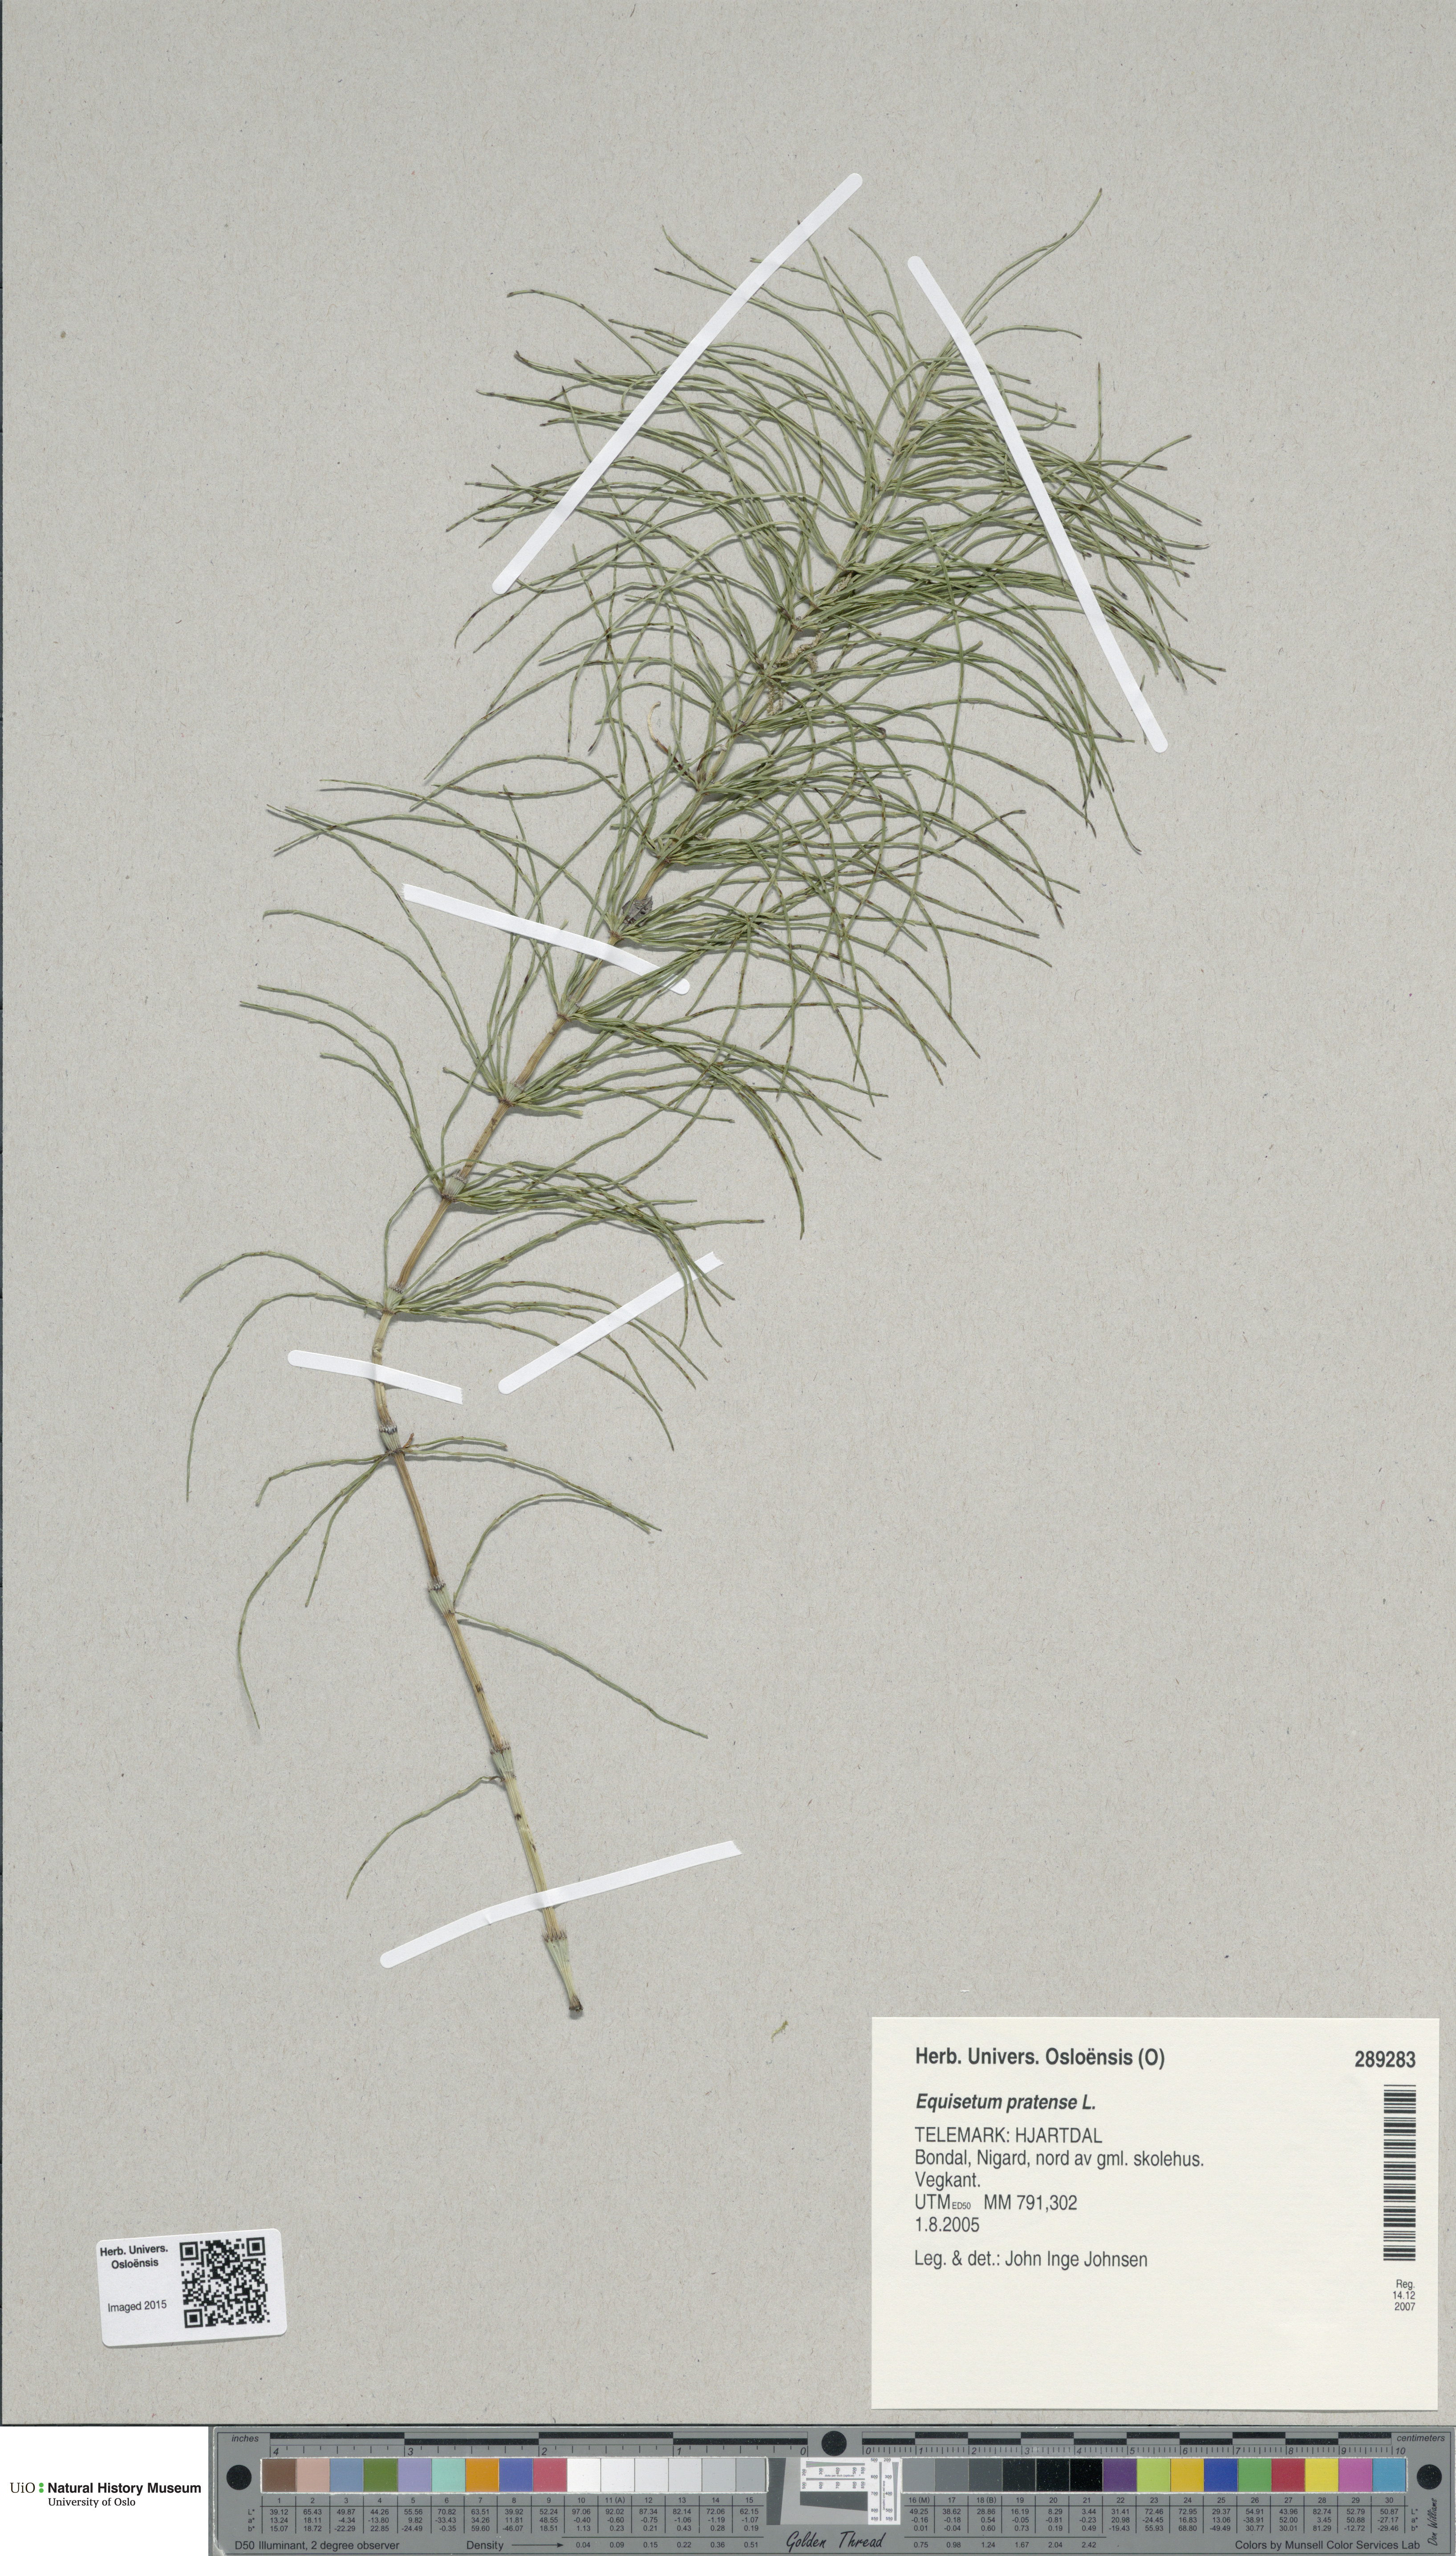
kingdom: Plantae
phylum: Tracheophyta
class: Polypodiopsida
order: Equisetales
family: Equisetaceae
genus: Equisetum
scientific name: Equisetum pratense
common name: Meadow horsetail
